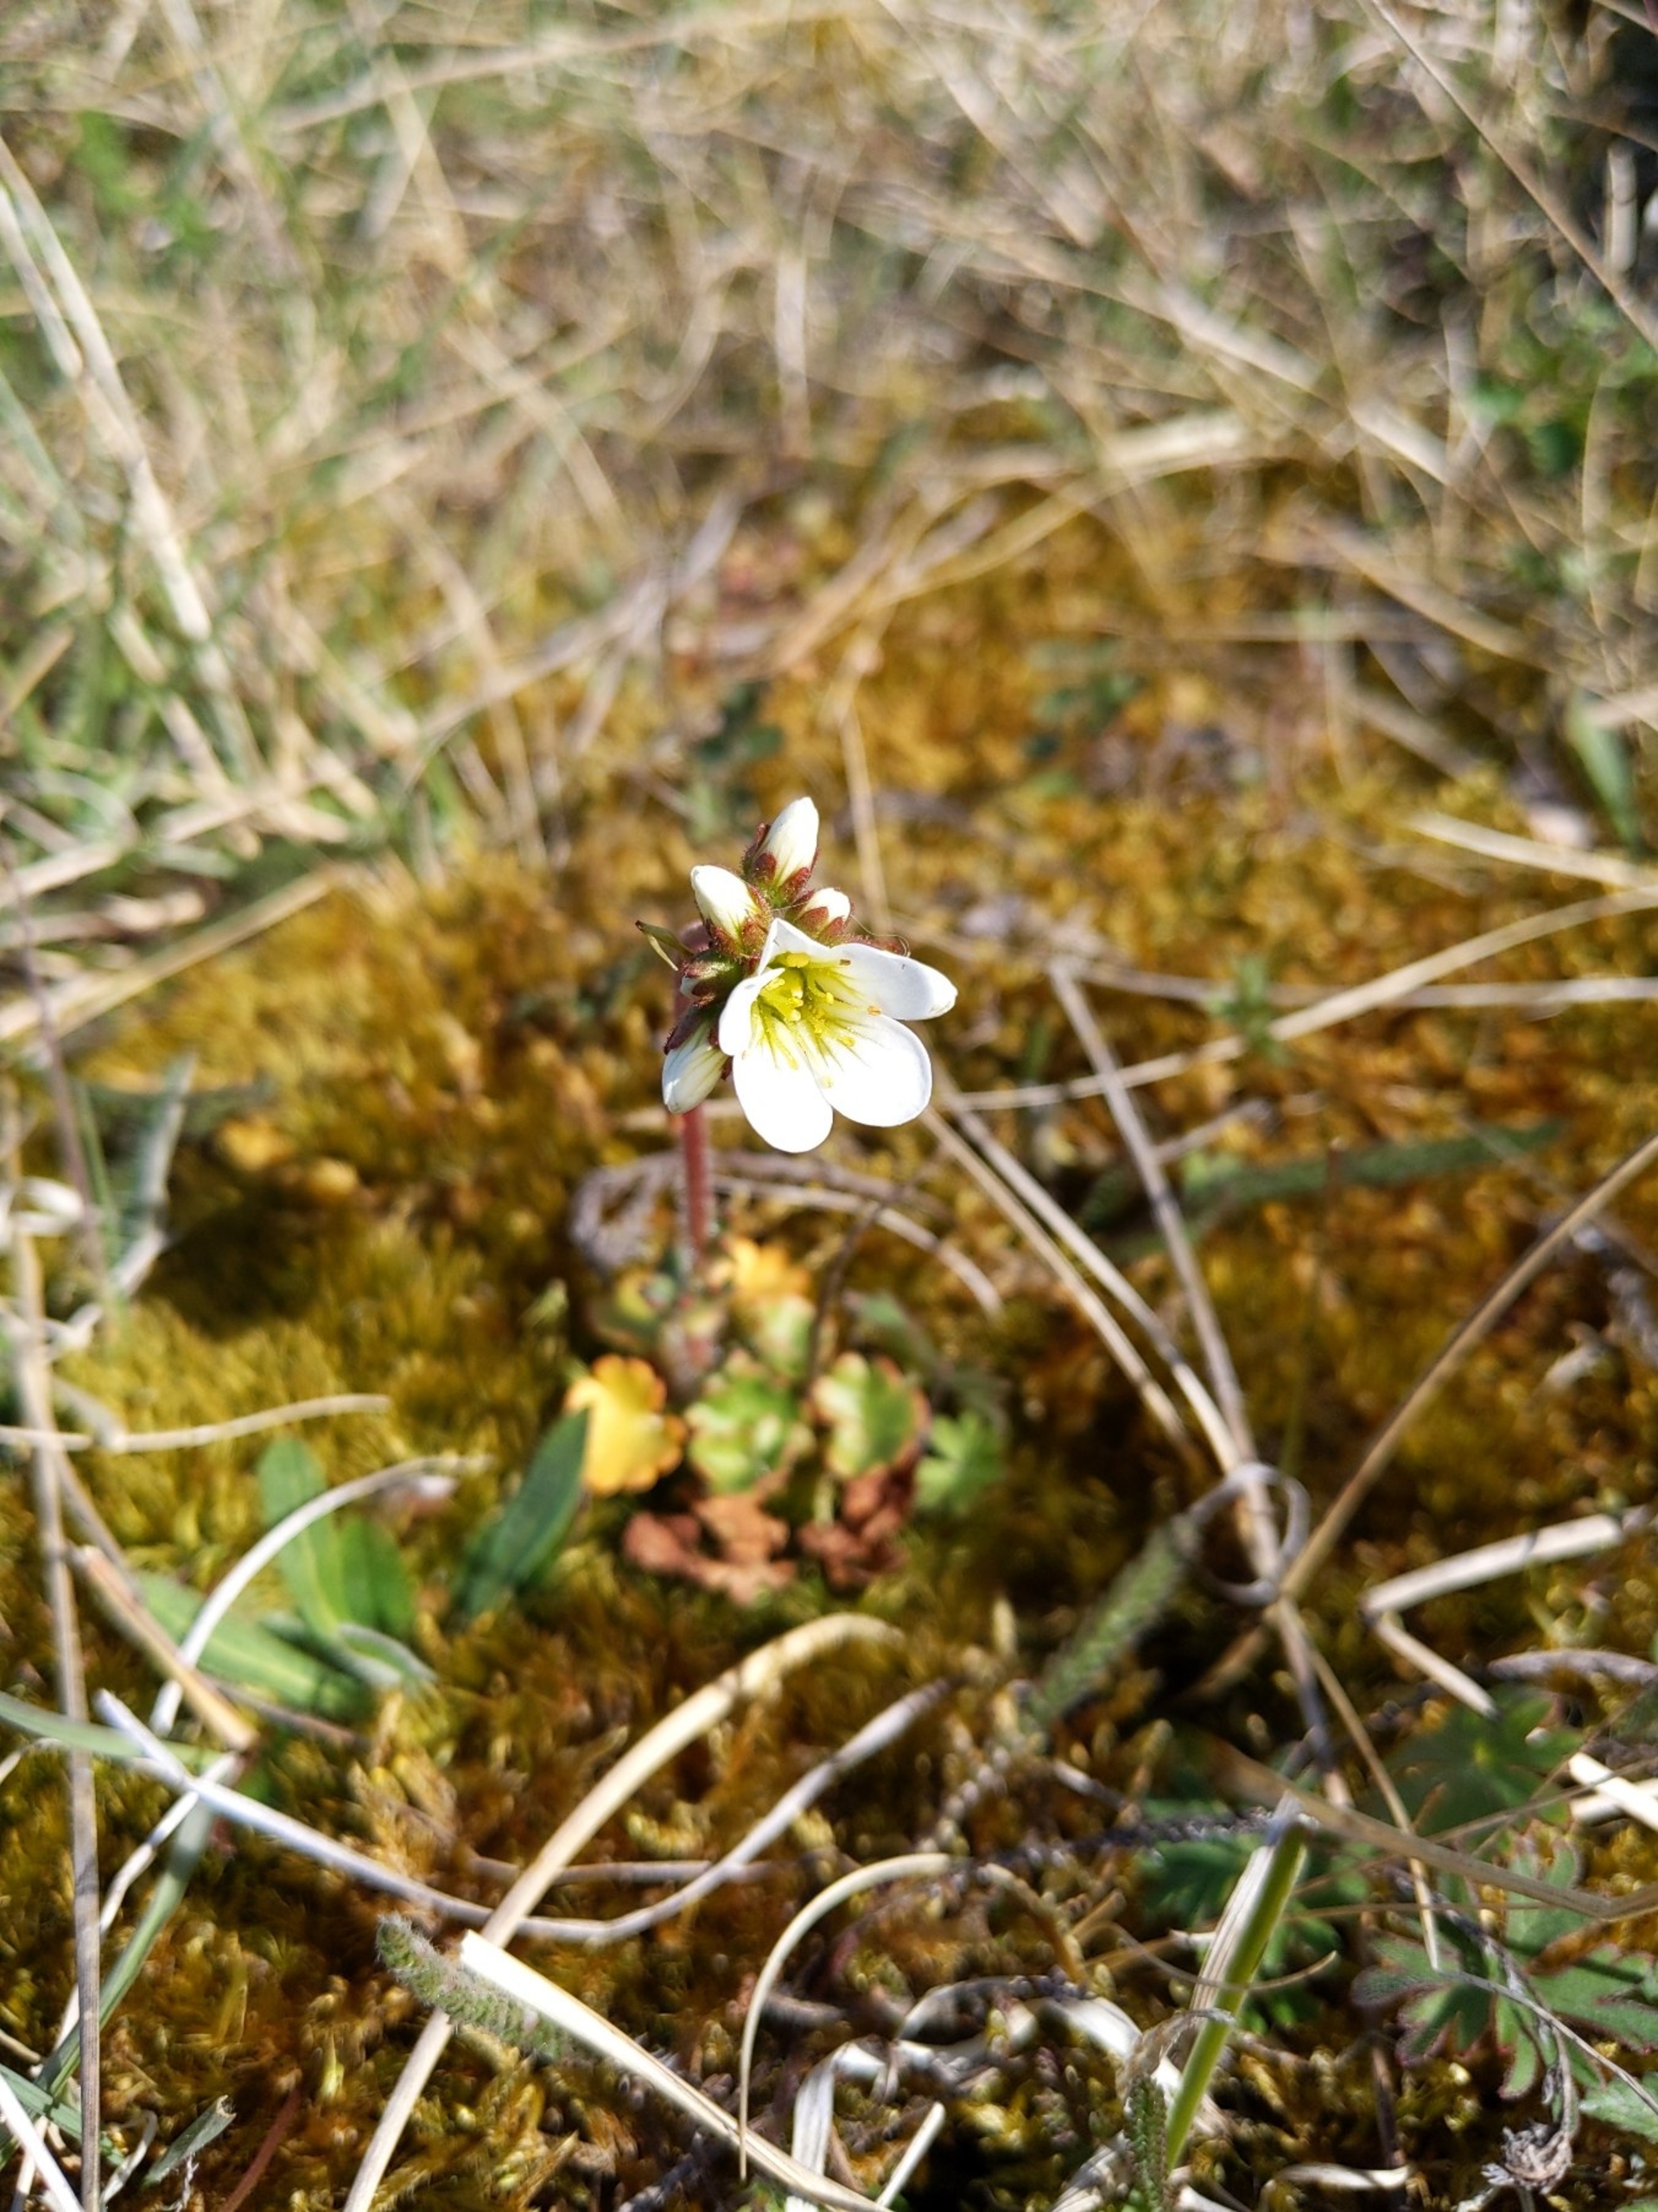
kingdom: Plantae
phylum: Tracheophyta
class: Magnoliopsida
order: Saxifragales
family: Saxifragaceae
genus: Saxifraga
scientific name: Saxifraga granulata
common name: Kornet stenbræk
